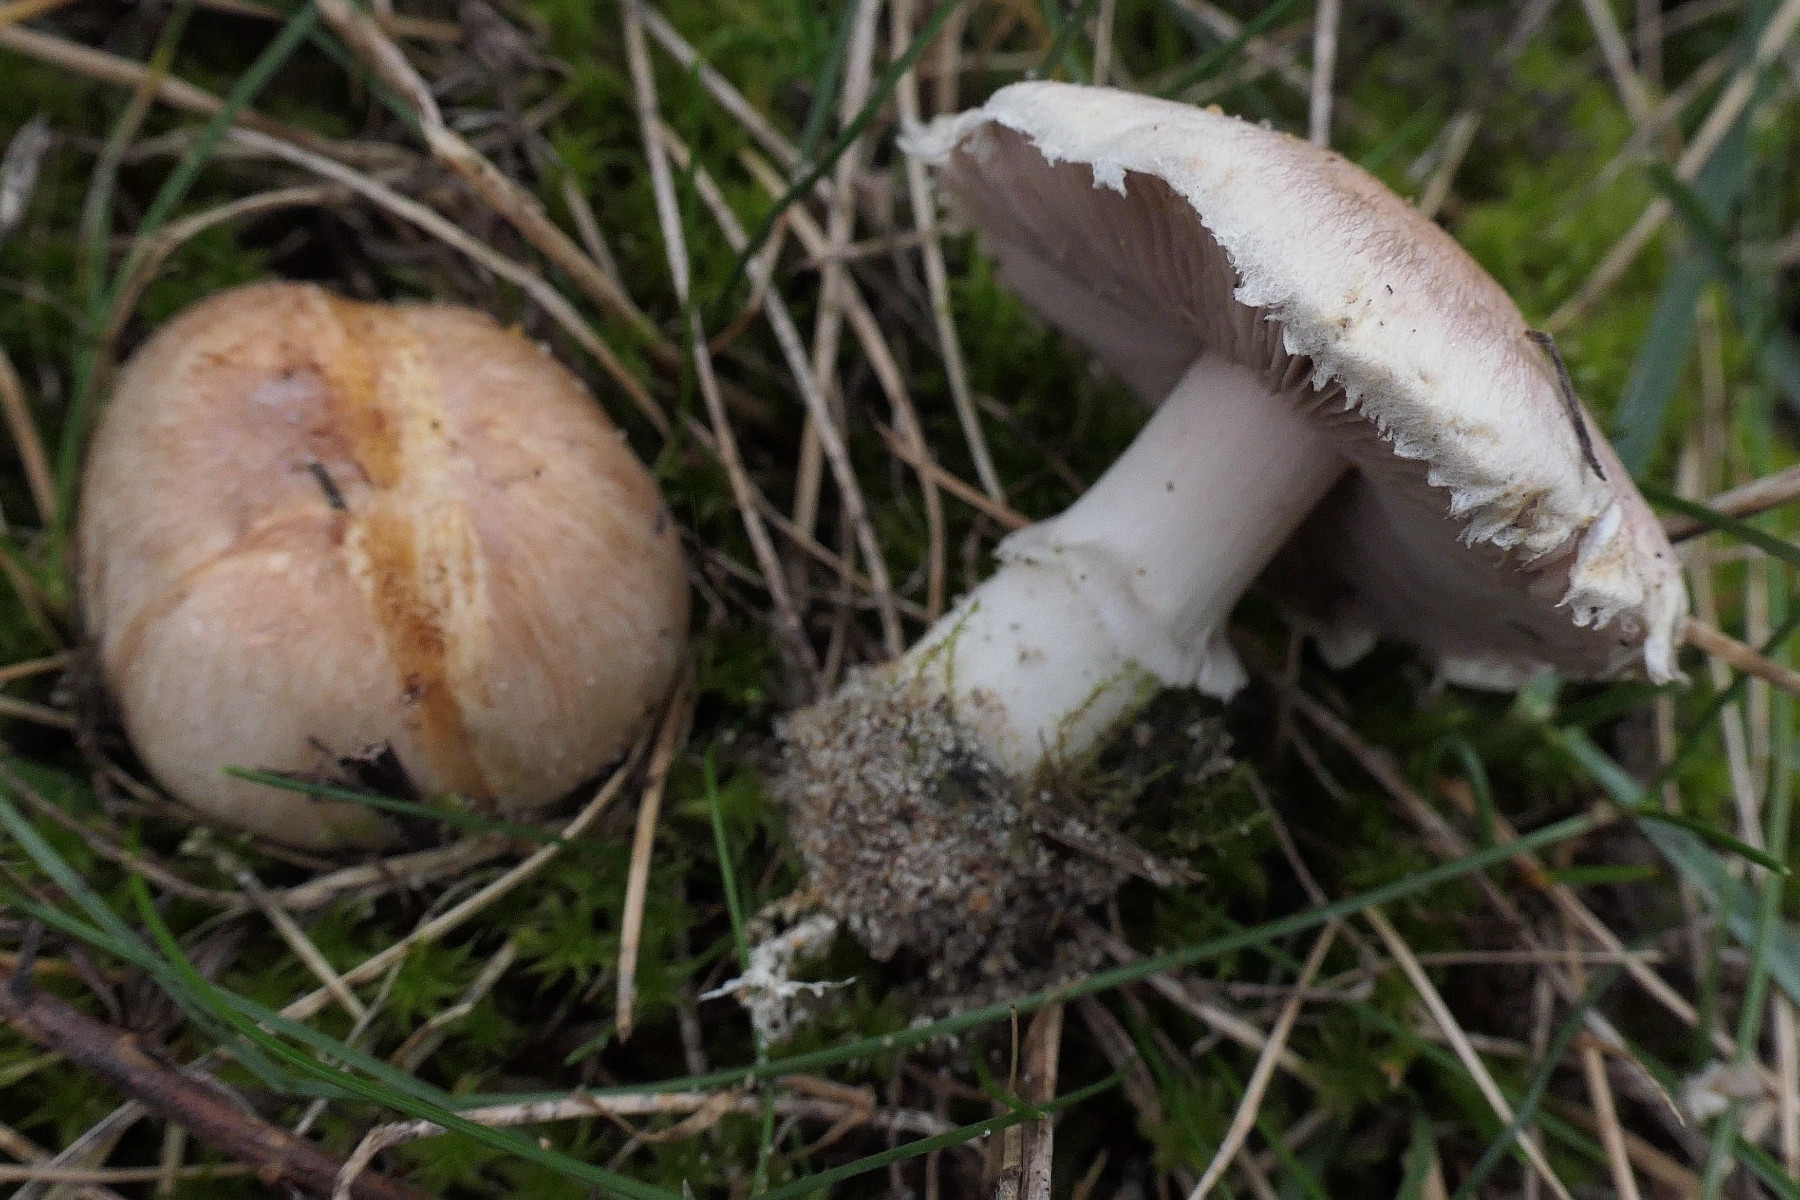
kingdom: Fungi
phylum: Basidiomycota
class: Agaricomycetes
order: Agaricales
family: Agaricaceae
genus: Agaricus
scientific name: Agaricus dulcidulus
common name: blegrød champignon
